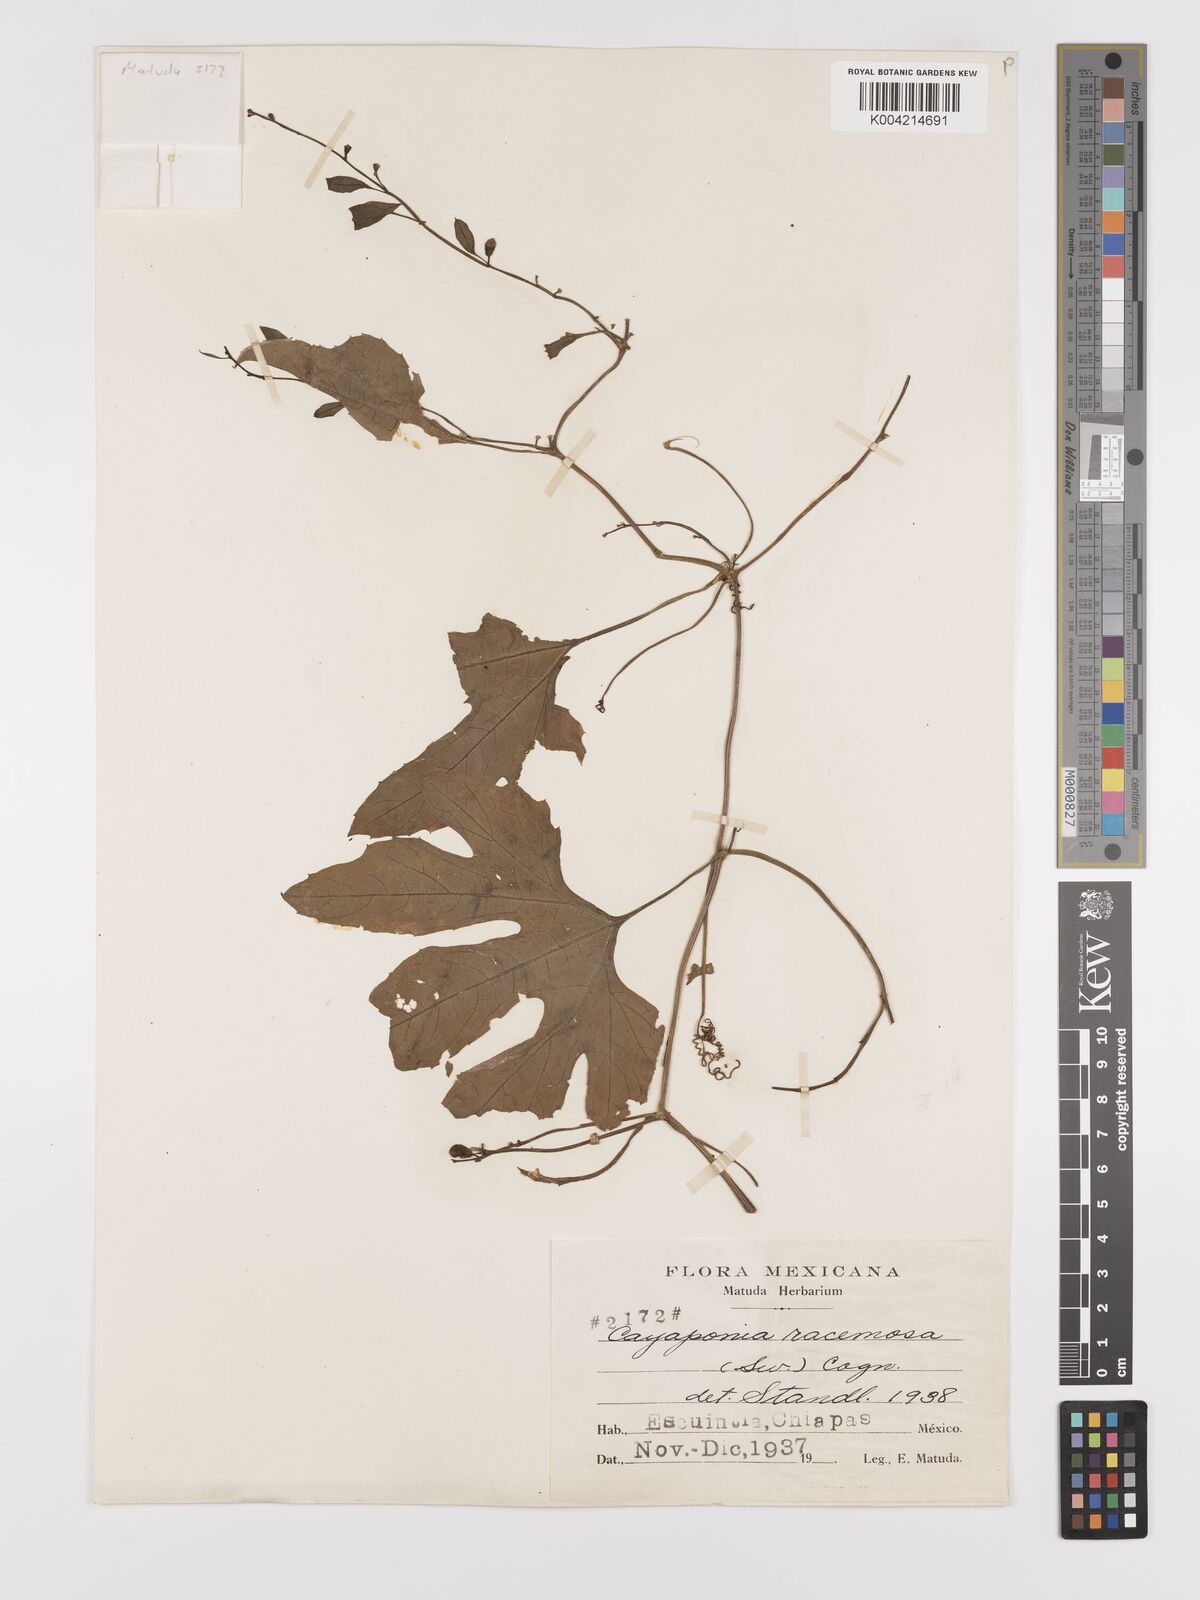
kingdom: Plantae
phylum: Tracheophyta
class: Magnoliopsida
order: Cucurbitales
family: Cucurbitaceae
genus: Cayaponia
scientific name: Cayaponia racemosa
